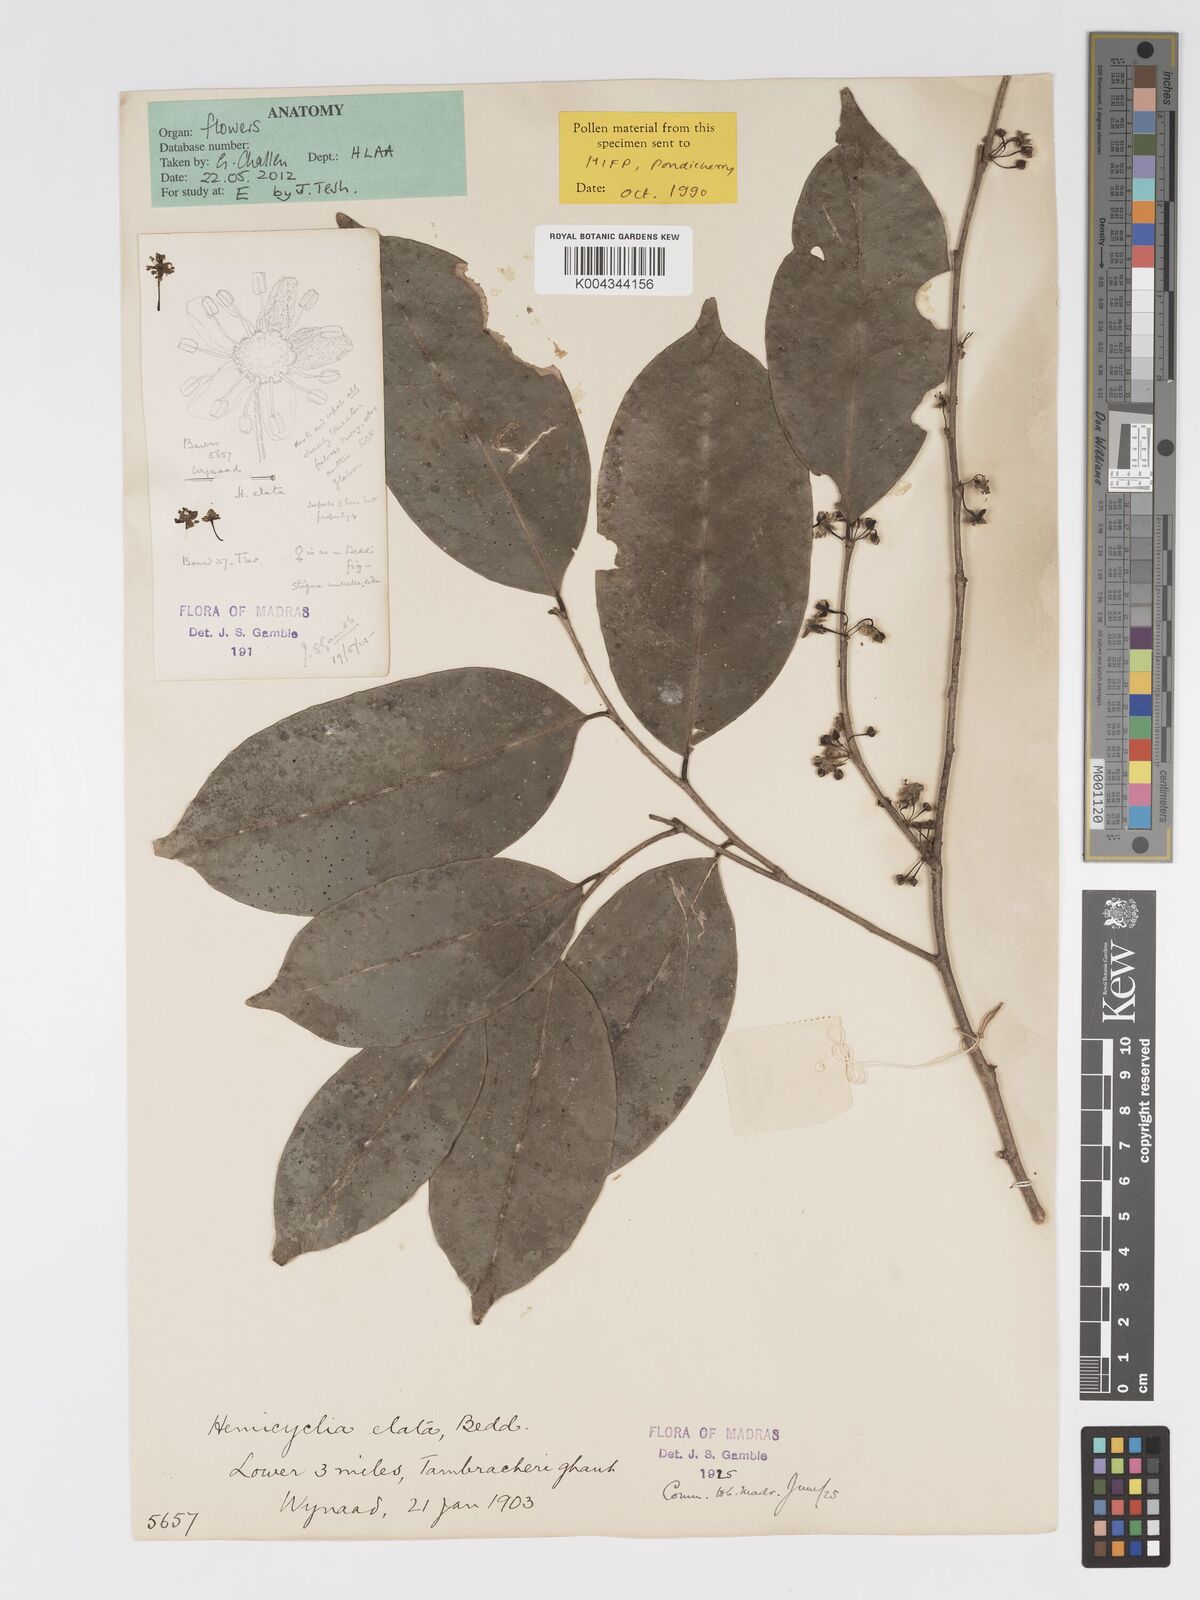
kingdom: Plantae
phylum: Tracheophyta
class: Magnoliopsida
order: Malpighiales
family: Putranjivaceae
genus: Drypetes
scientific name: Drypetes venusta
